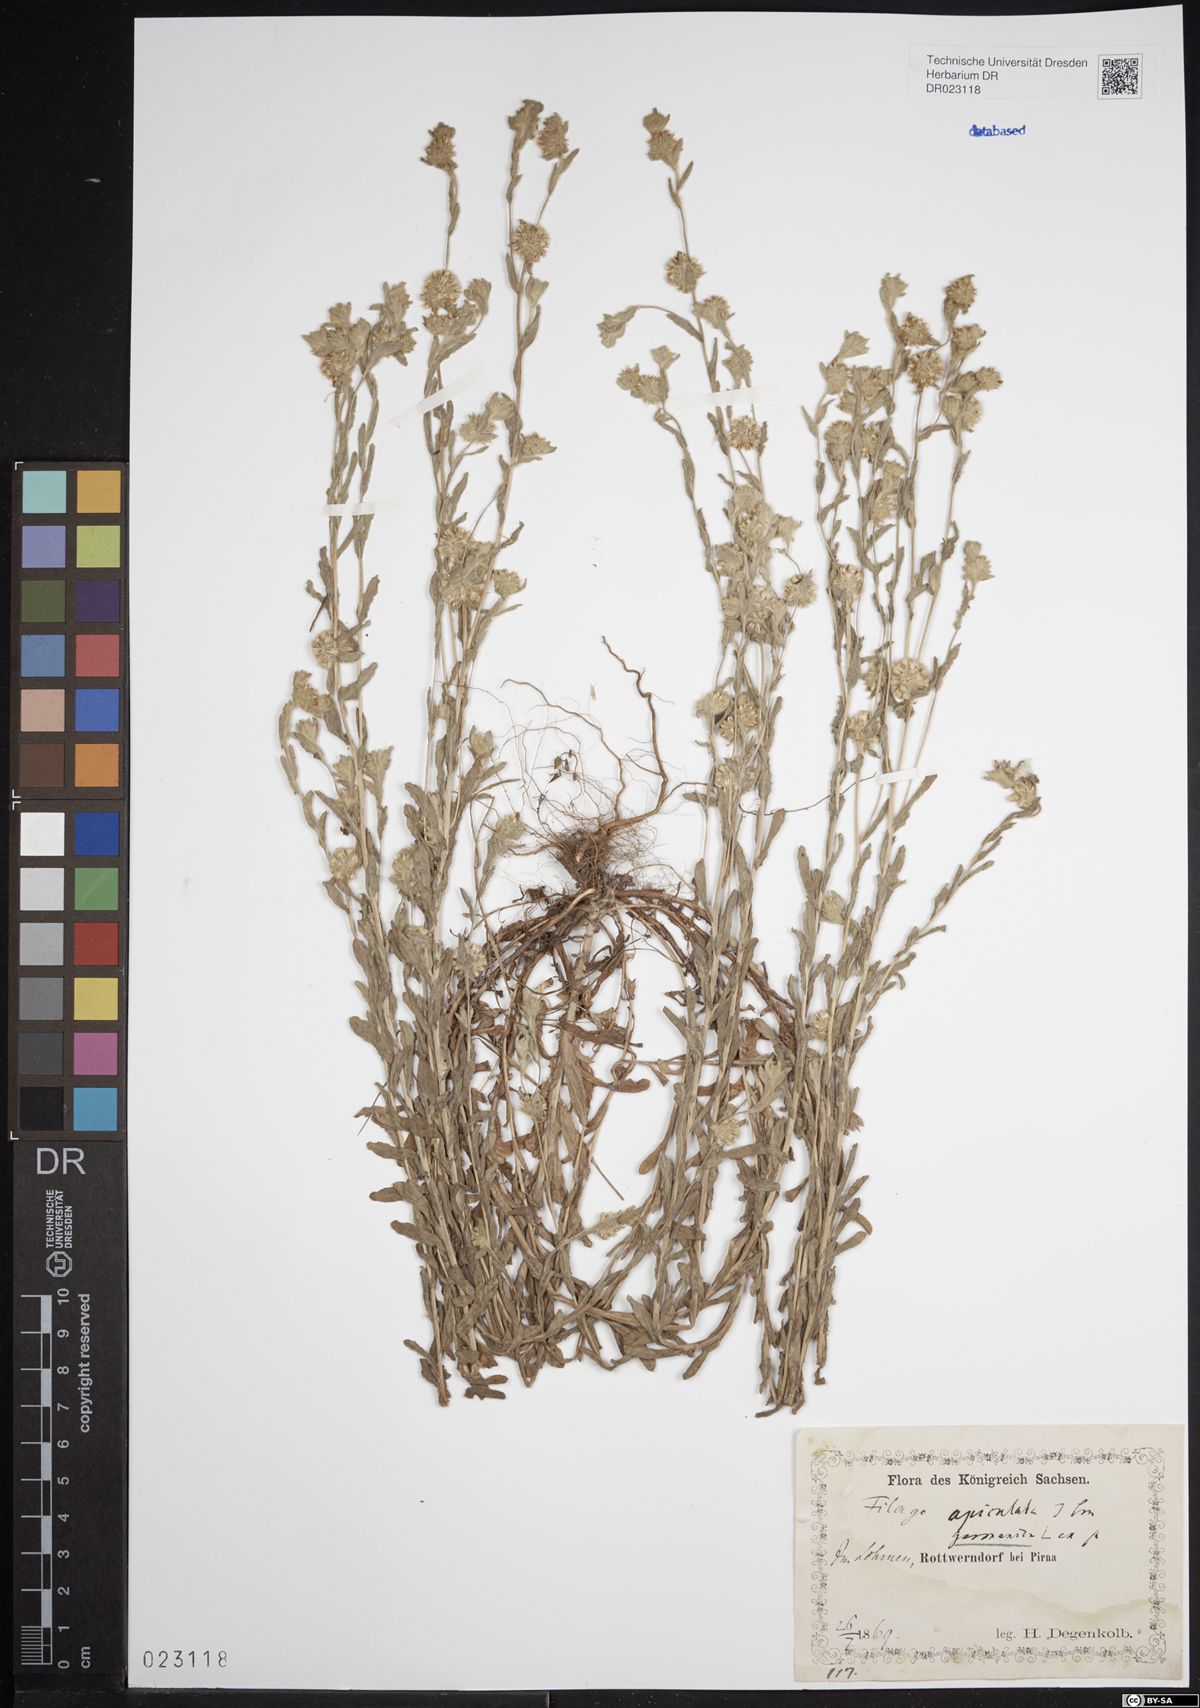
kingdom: Plantae
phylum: Tracheophyta
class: Magnoliopsida
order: Asterales
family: Asteraceae
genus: Filago
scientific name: Filago germanica
